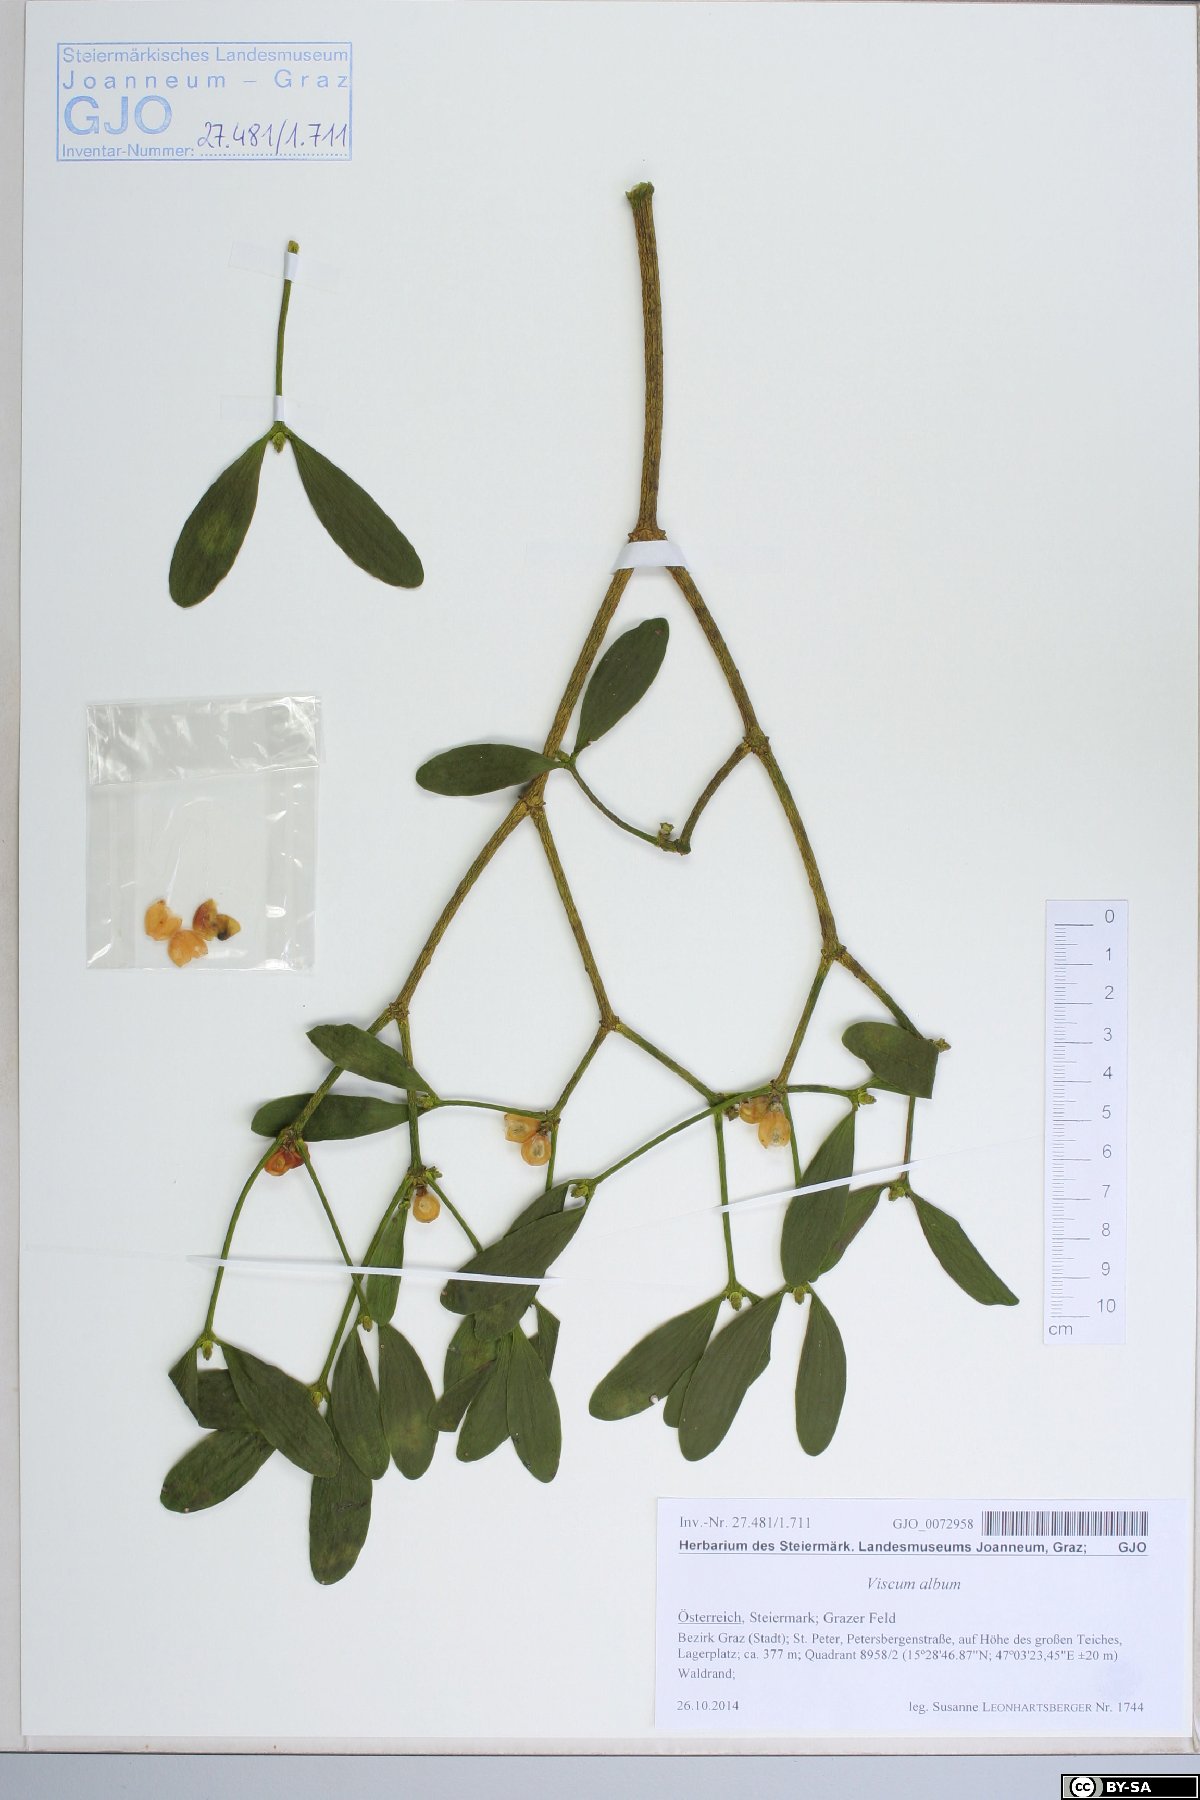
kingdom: Plantae
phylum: Tracheophyta
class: Magnoliopsida
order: Santalales
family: Viscaceae
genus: Viscum
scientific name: Viscum album
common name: Mistletoe
